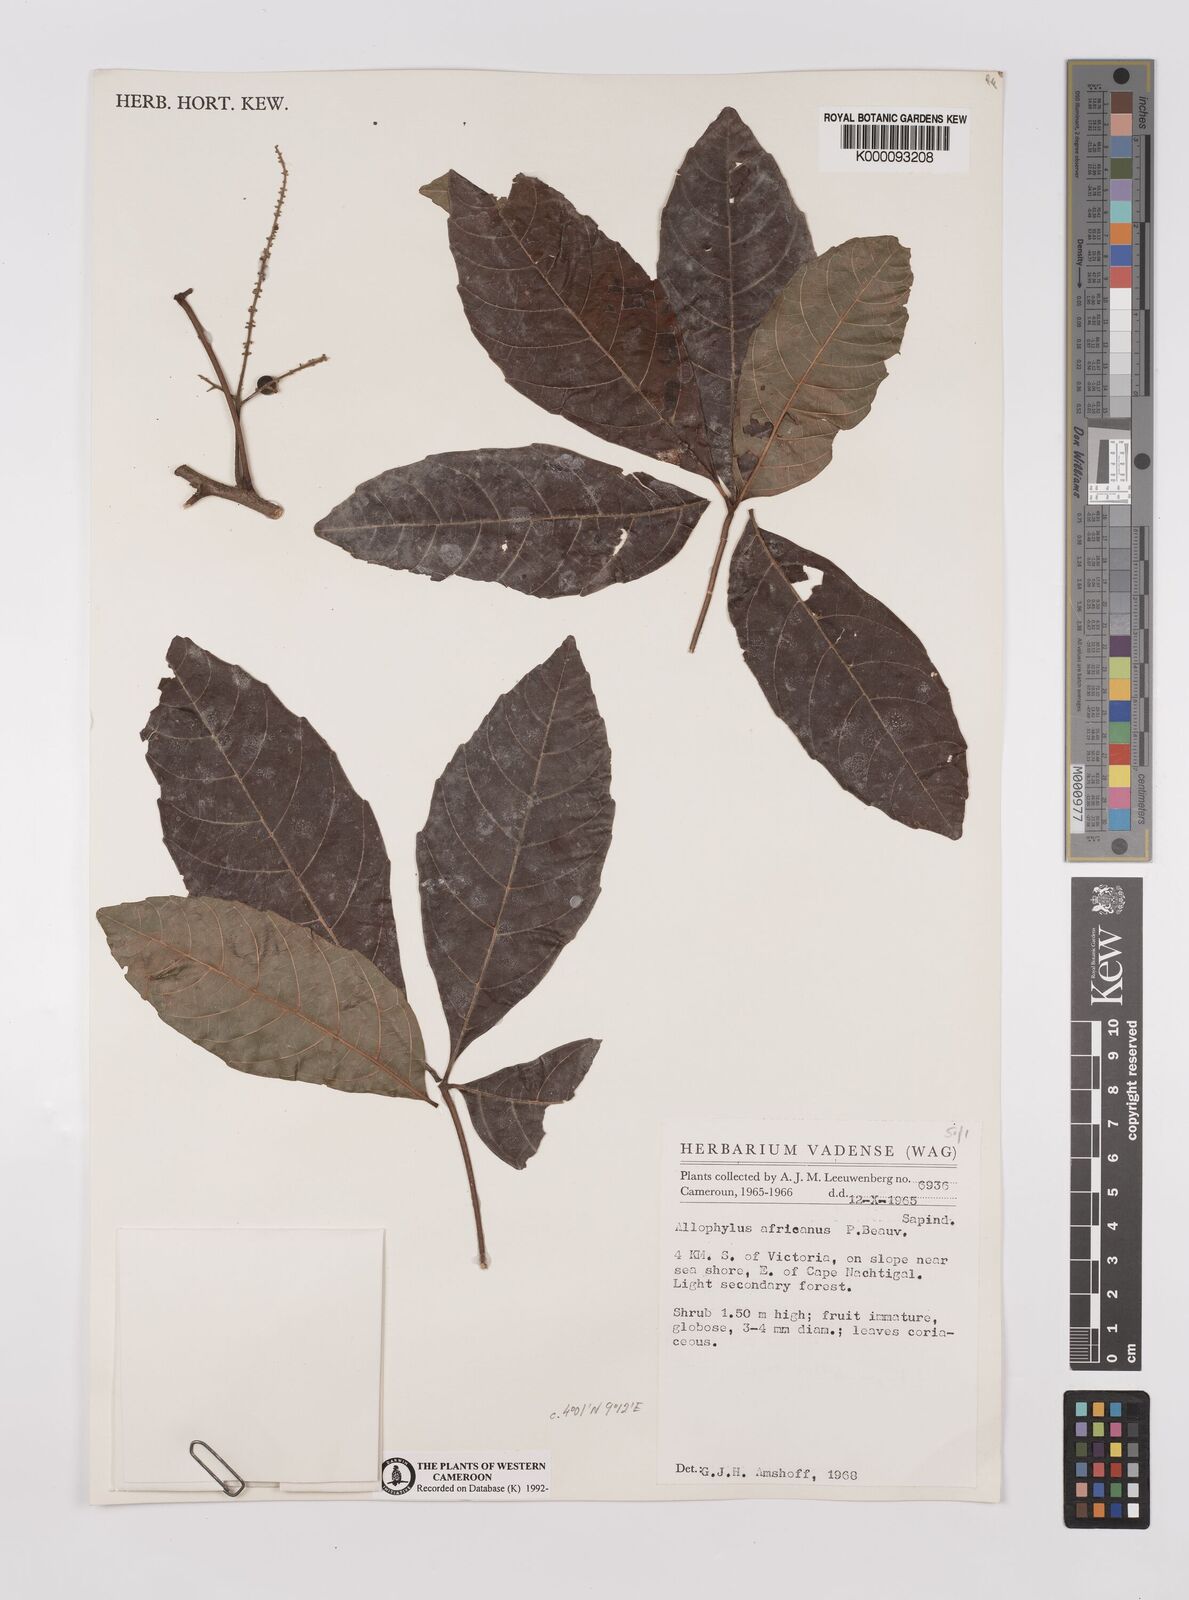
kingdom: Plantae
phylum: Tracheophyta
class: Magnoliopsida
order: Sapindales
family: Sapindaceae
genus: Allophylus
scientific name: Allophylus africanus
